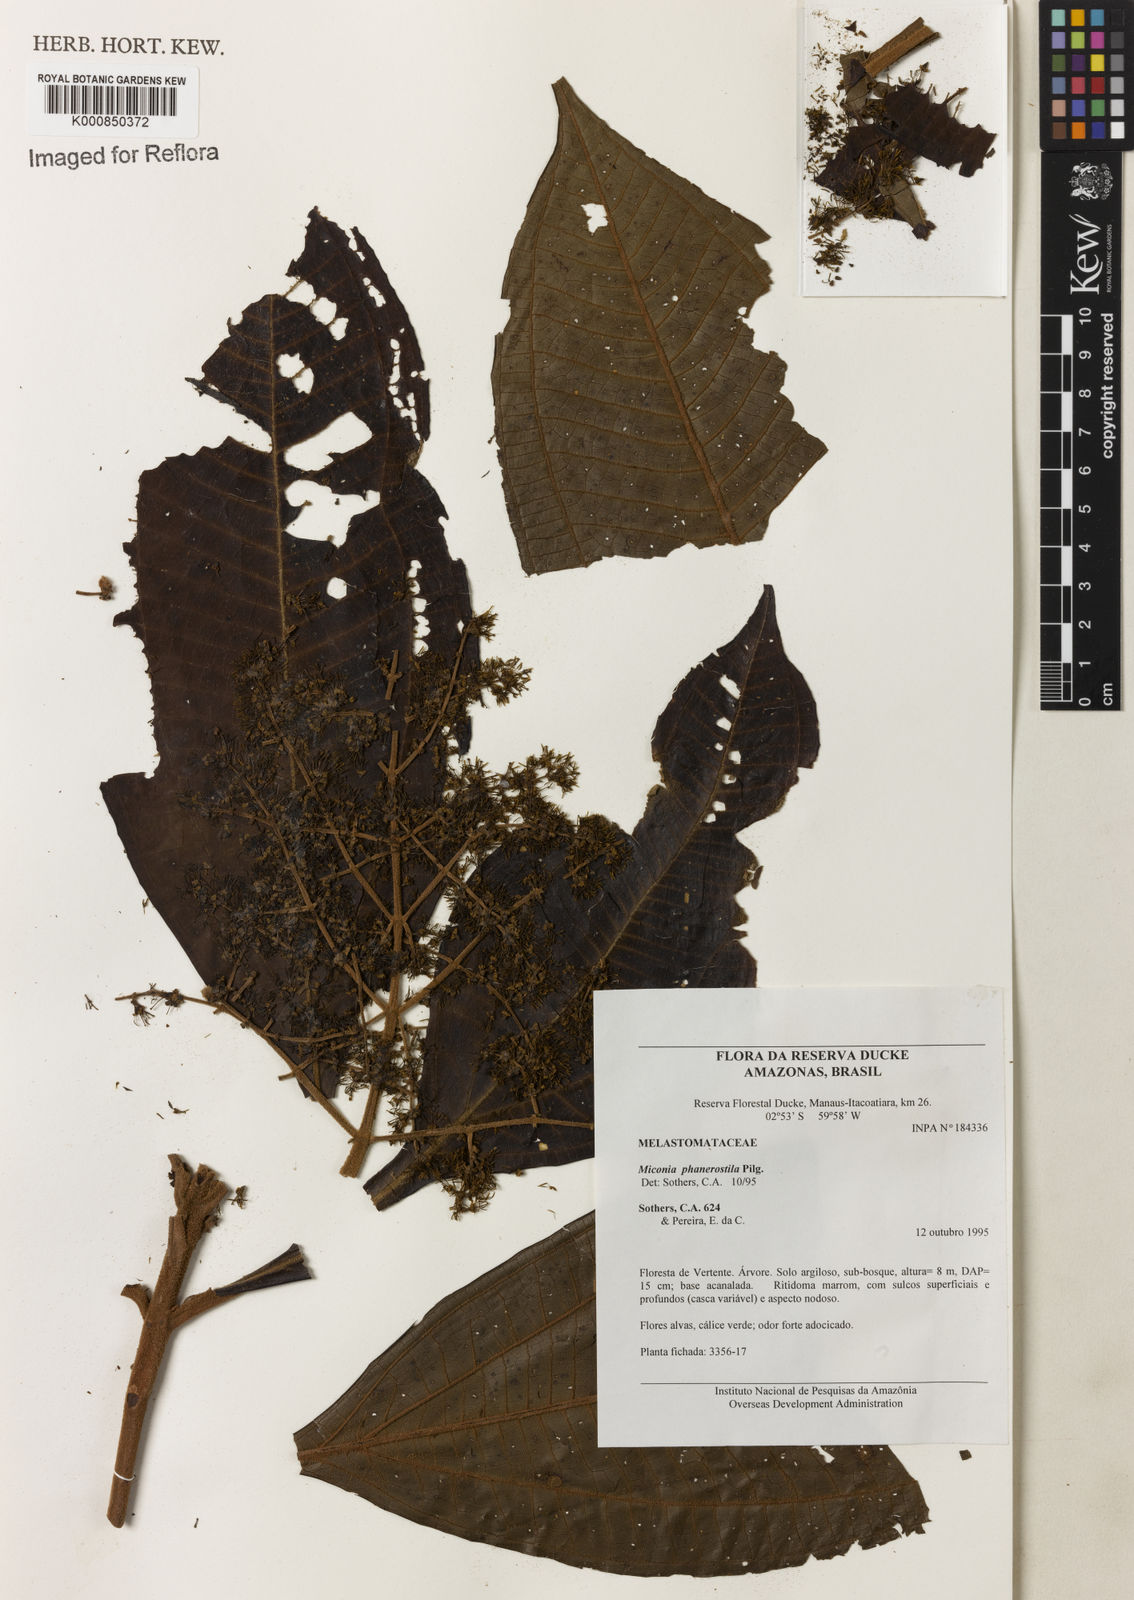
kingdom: Plantae
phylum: Tracheophyta
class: Magnoliopsida
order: Myrtales
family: Melastomataceae
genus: Miconia
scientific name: Miconia phanerostila
